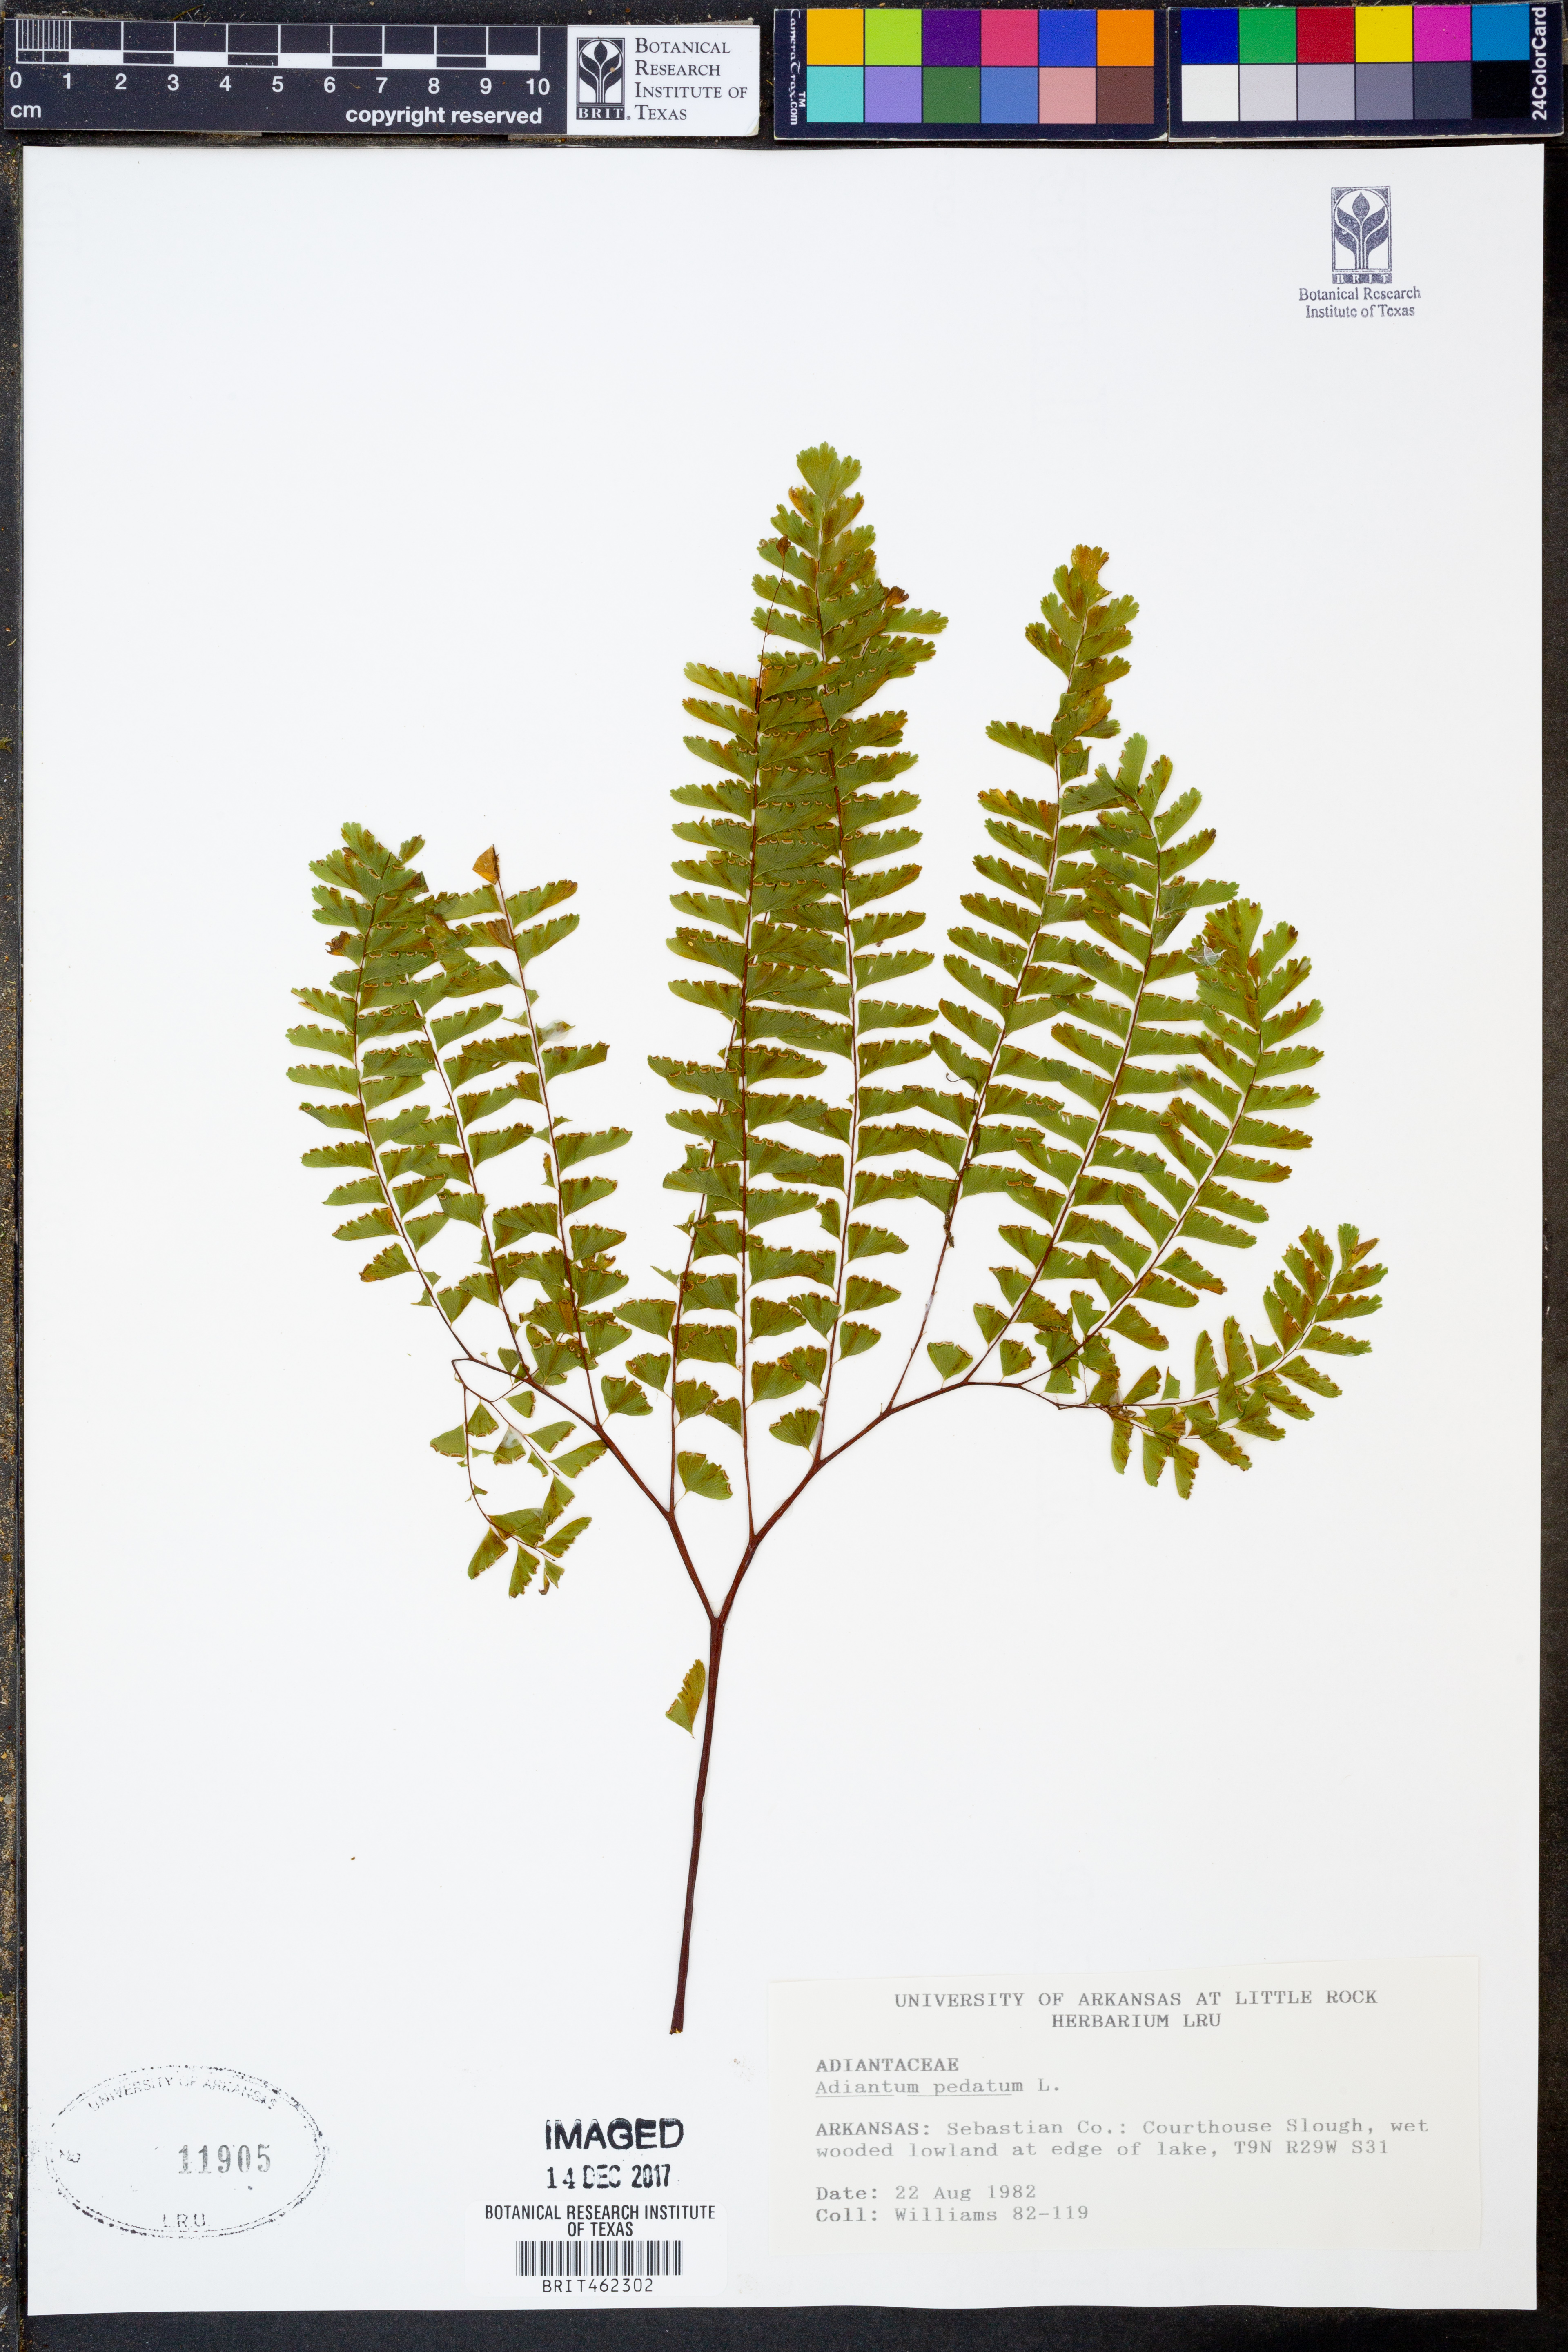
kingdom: Plantae
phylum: Tracheophyta
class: Polypodiopsida
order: Polypodiales
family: Pteridaceae
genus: Adiantum
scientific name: Adiantum pedatum
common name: Five-finger fern
